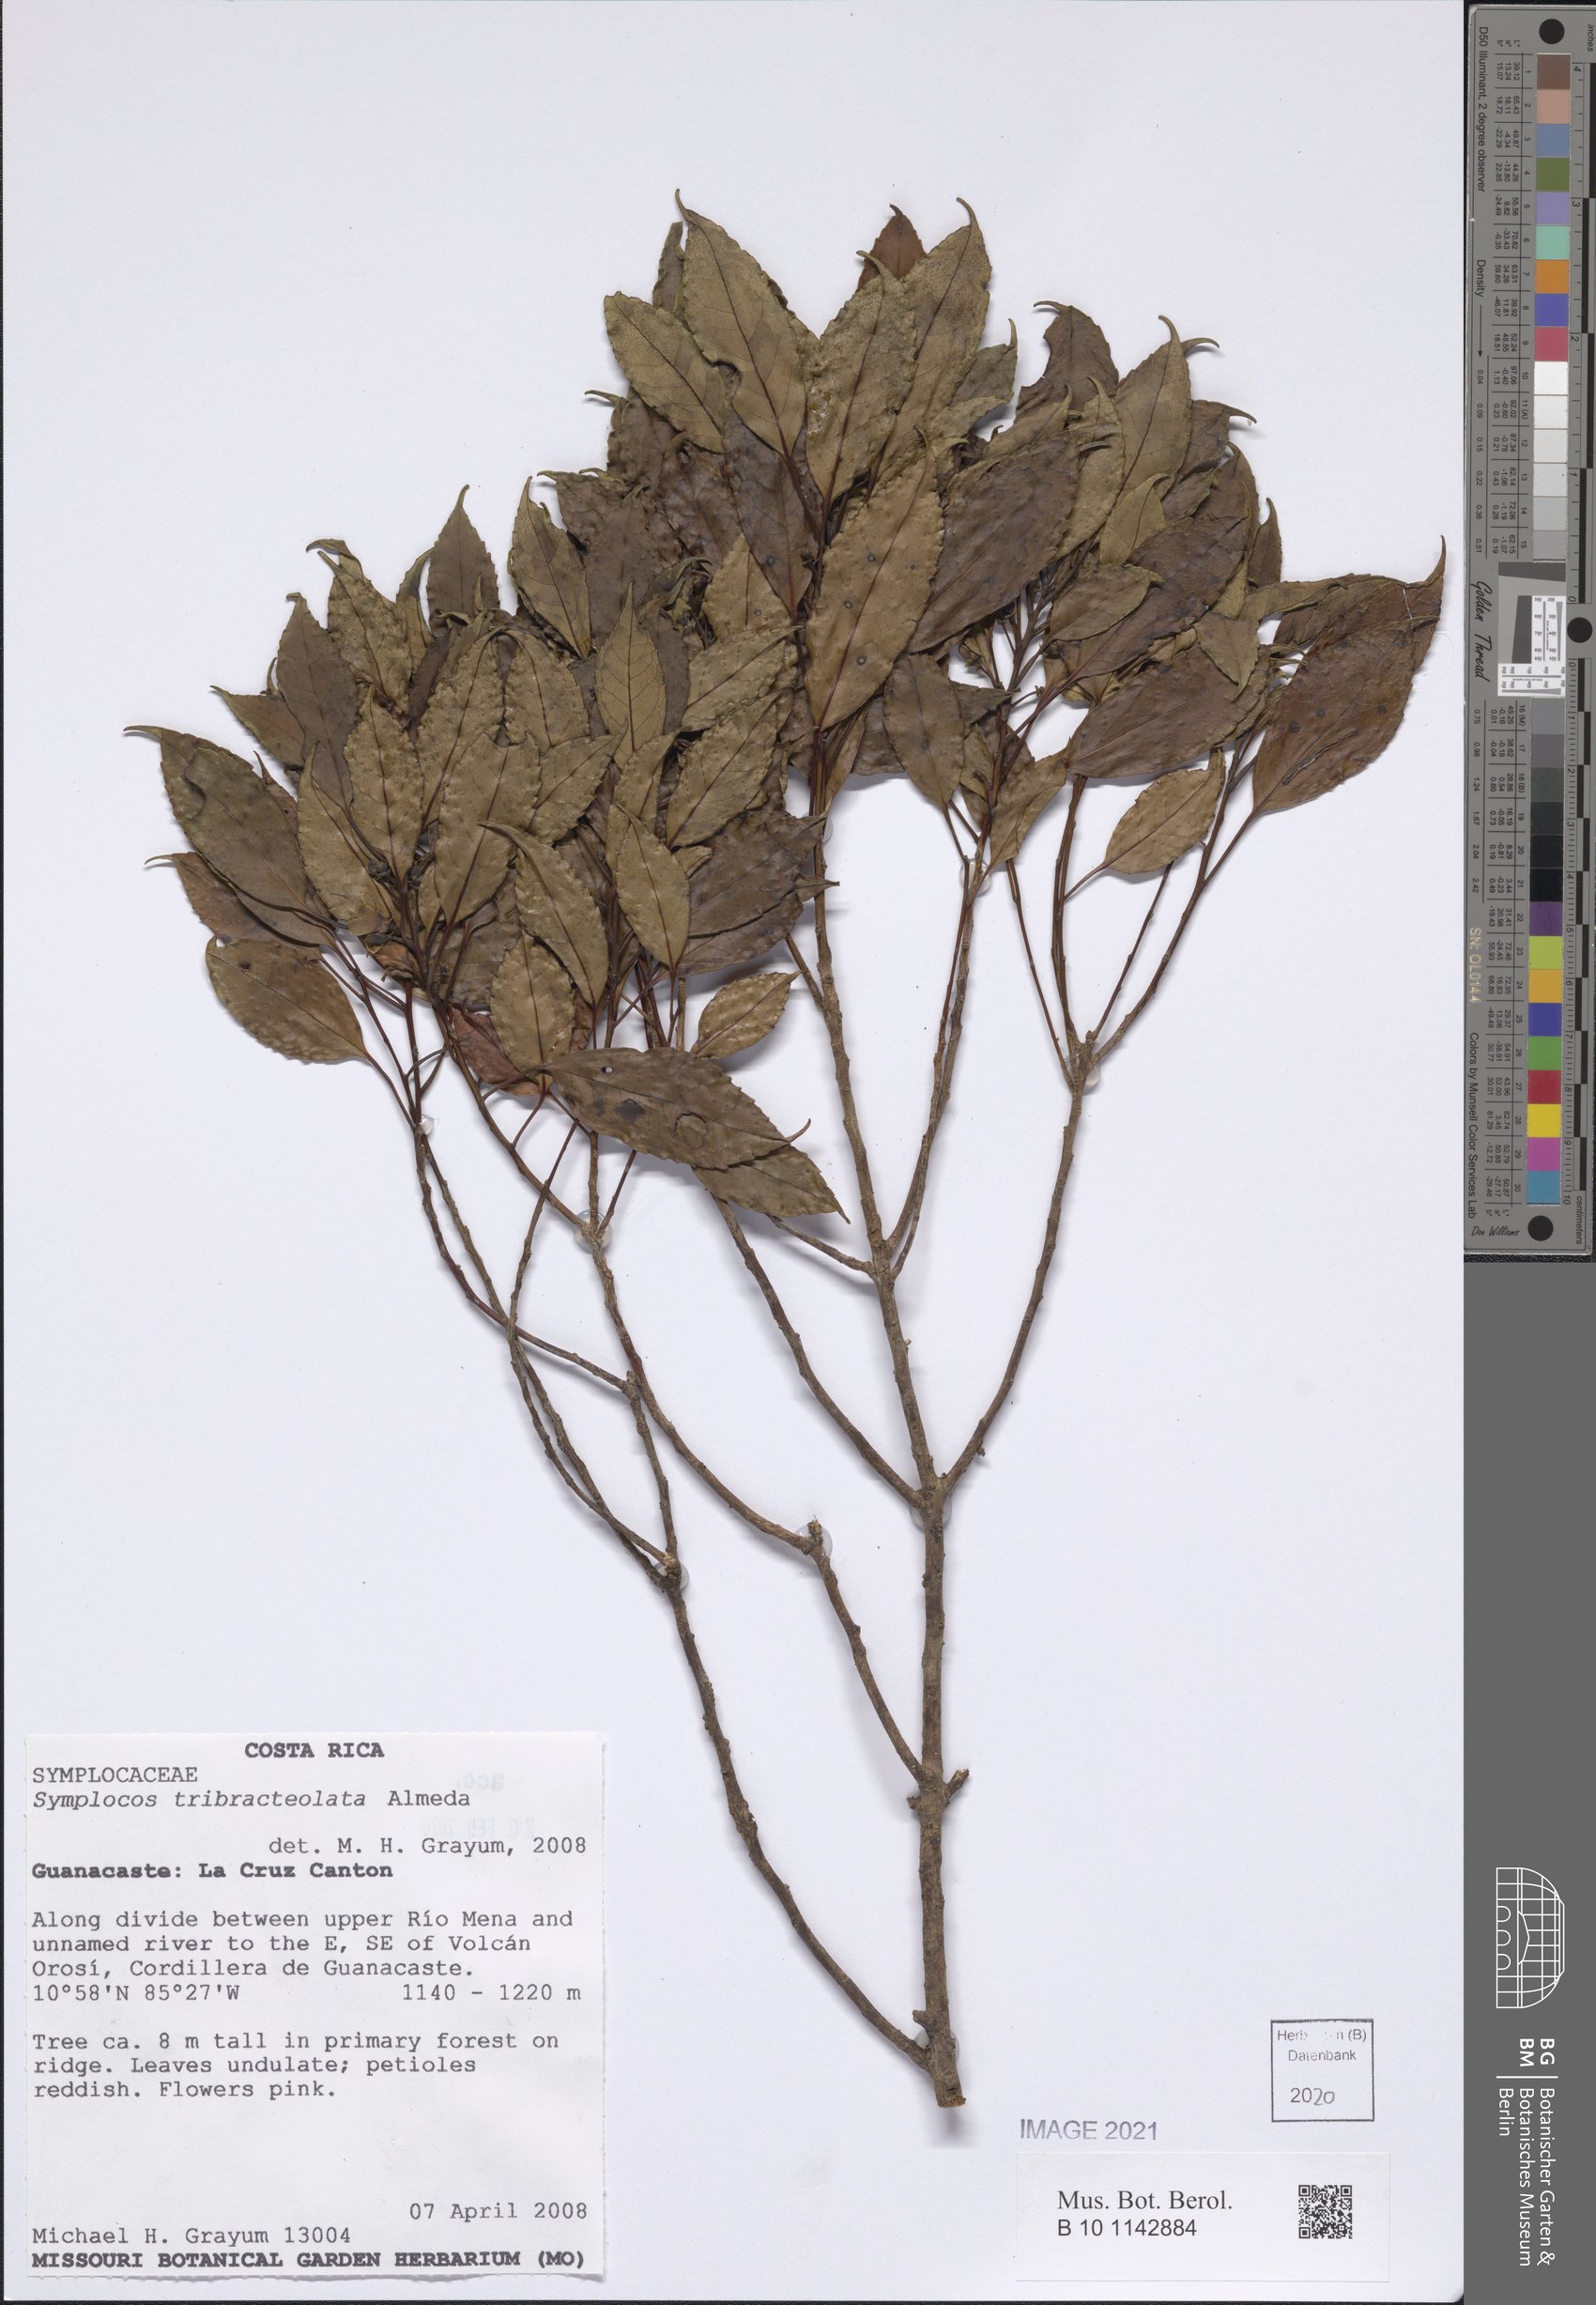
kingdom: Plantae
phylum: Tracheophyta
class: Magnoliopsida
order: Ericales
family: Symplocaceae
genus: Symplocos
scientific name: Symplocos tribracteolata
